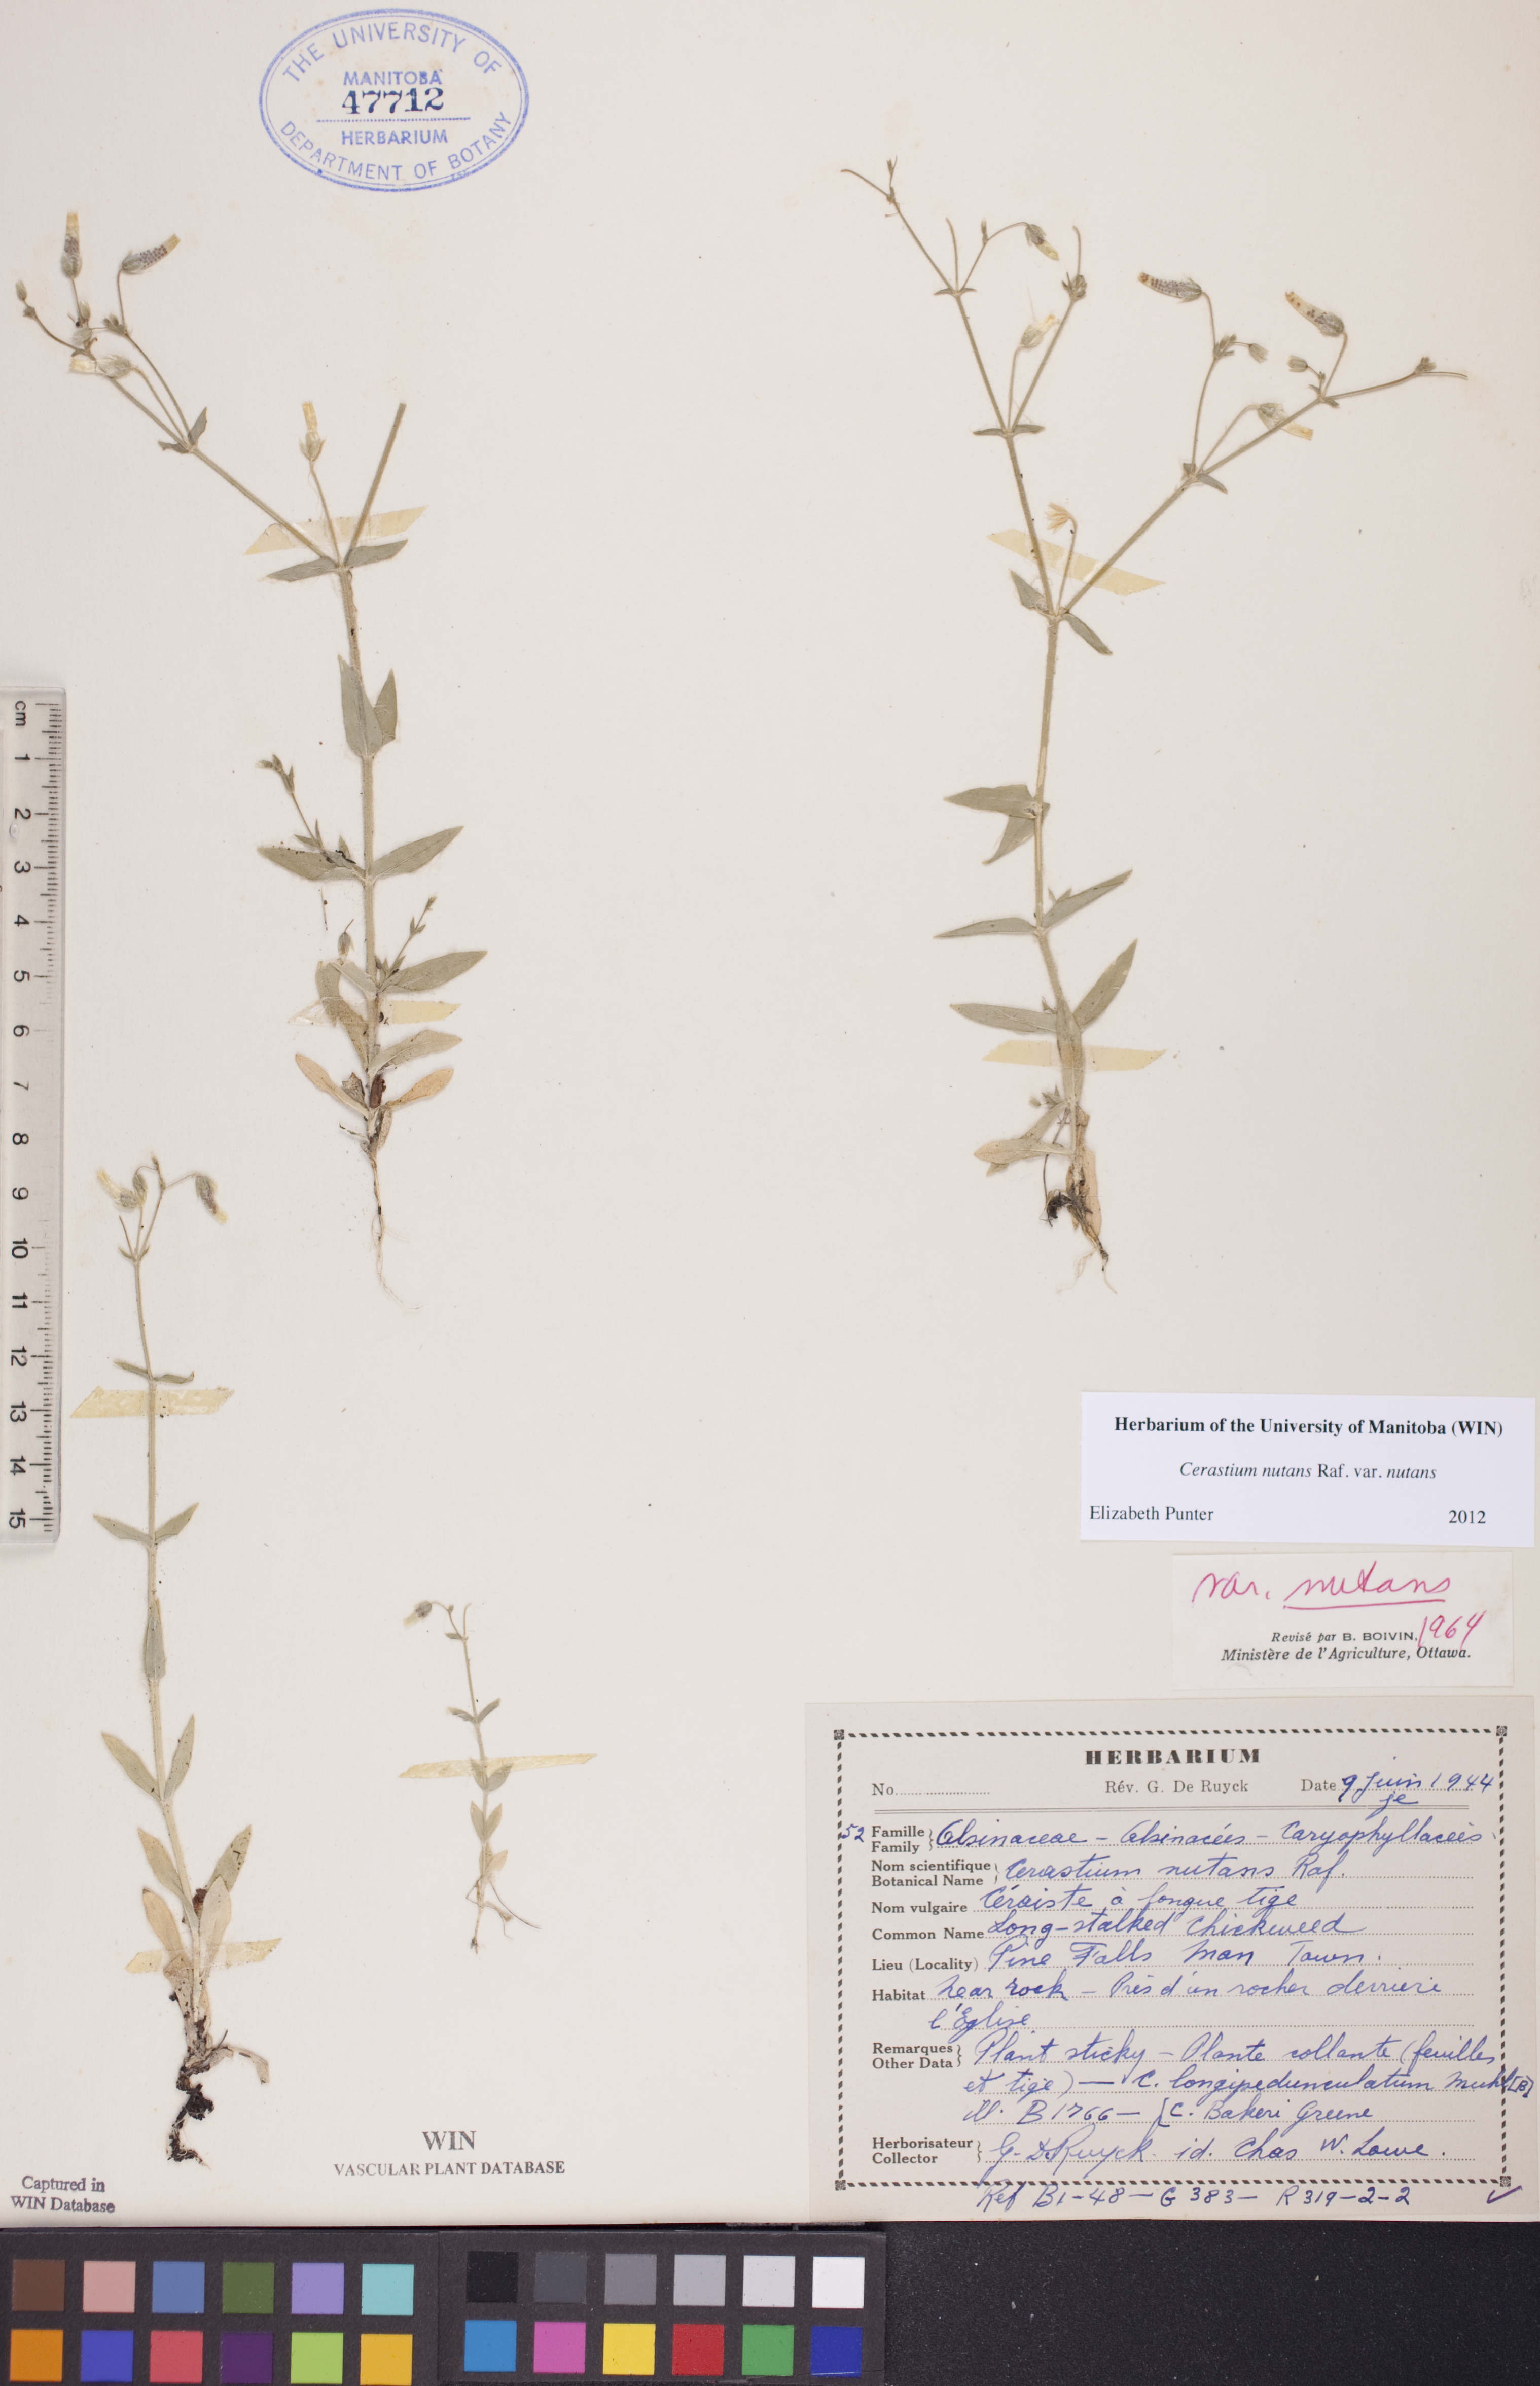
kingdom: Plantae
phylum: Tracheophyta
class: Magnoliopsida
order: Caryophyllales
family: Caryophyllaceae
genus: Cerastium
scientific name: Cerastium nutans
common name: Long-stalked chickweed
